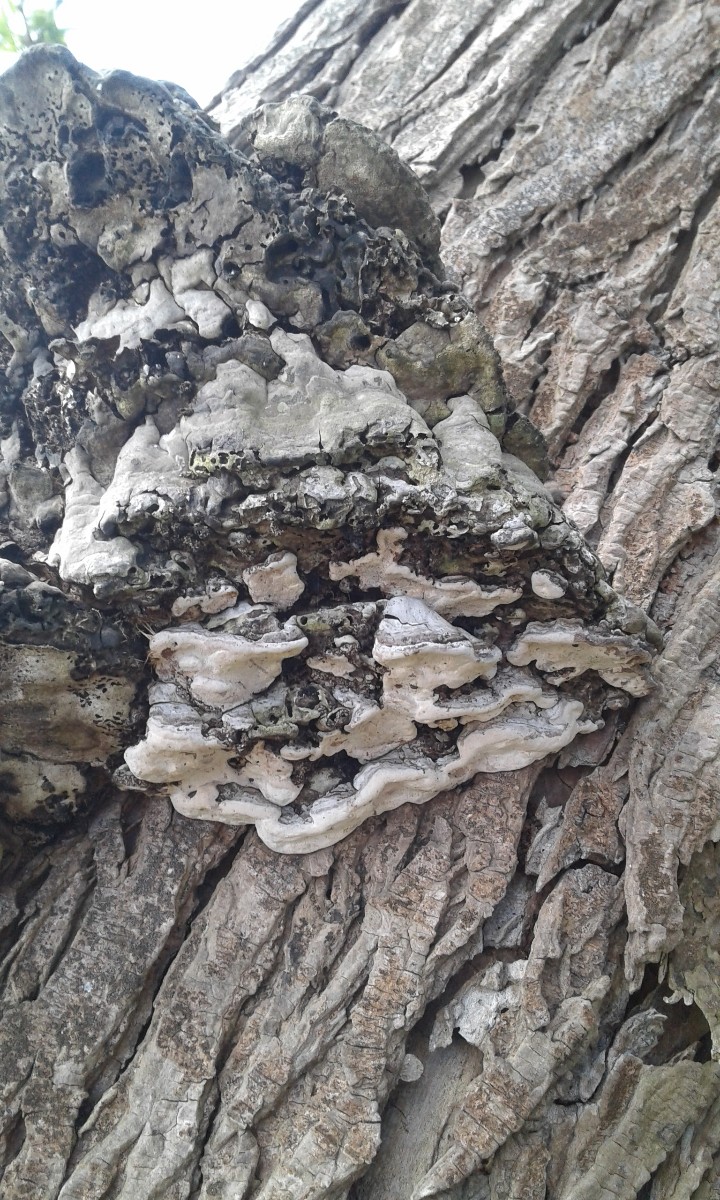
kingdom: Fungi
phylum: Basidiomycota
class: Agaricomycetes
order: Polyporales
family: Polyporaceae
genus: Fomes
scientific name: Fomes fomentarius
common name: tøndersvamp
